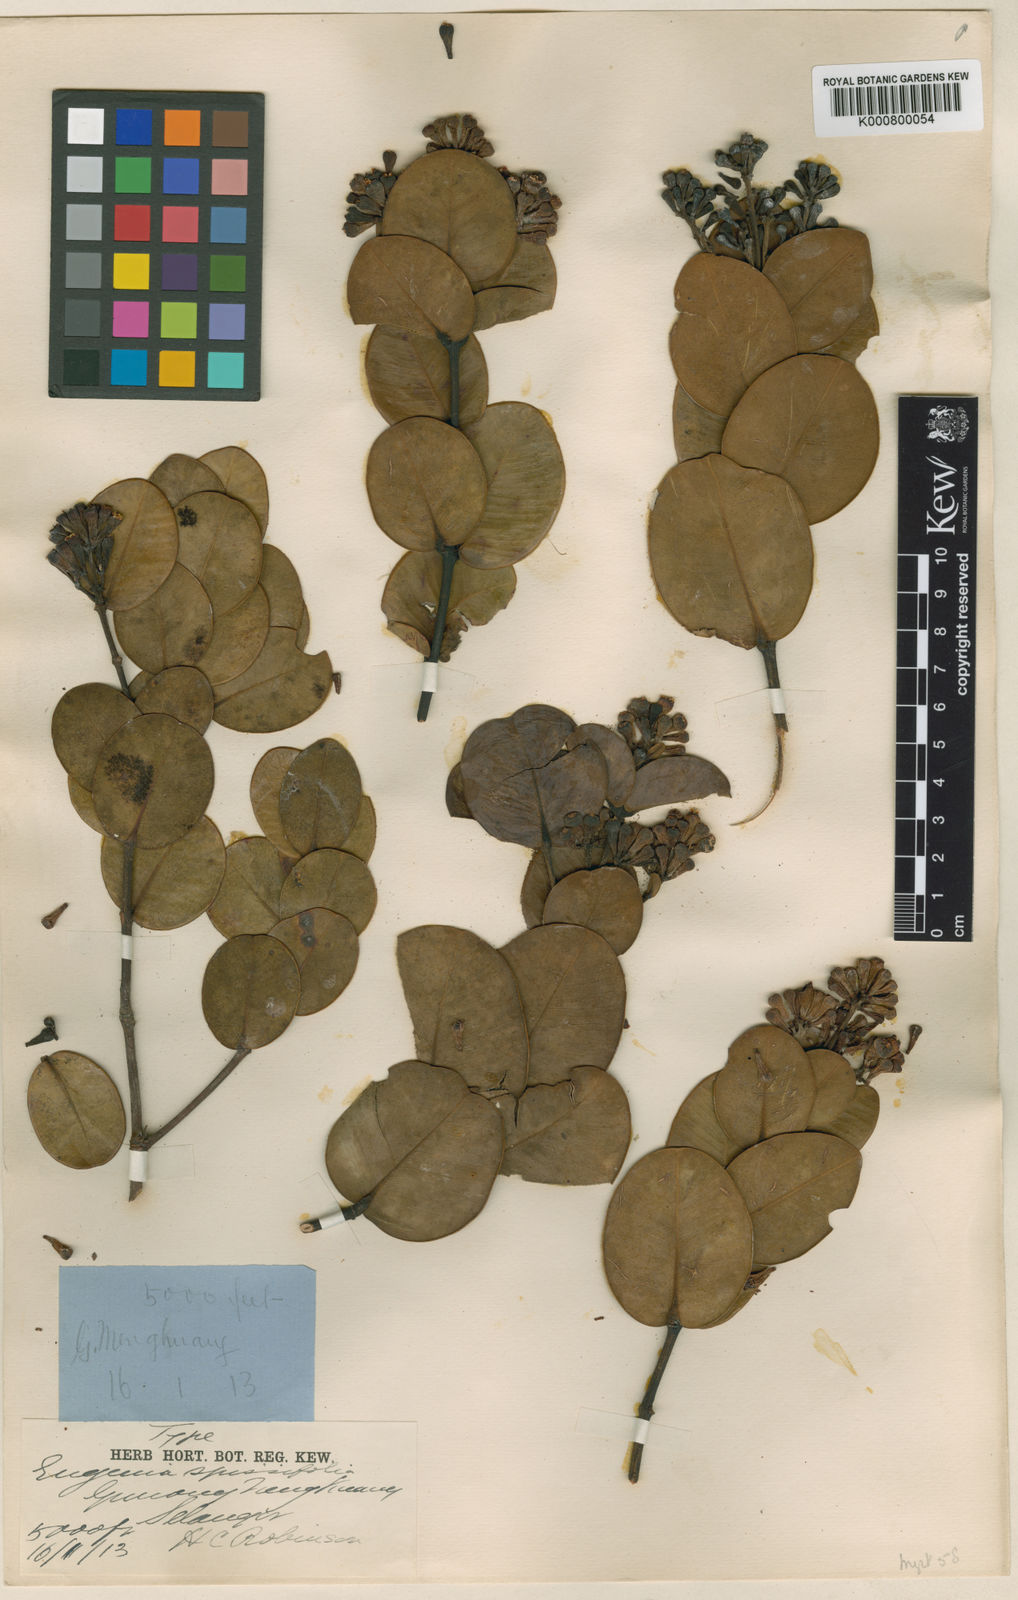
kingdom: Plantae
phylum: Tracheophyta
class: Magnoliopsida
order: Myrtales
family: Myrtaceae
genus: Syzygium
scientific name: Syzygium spissifolium
